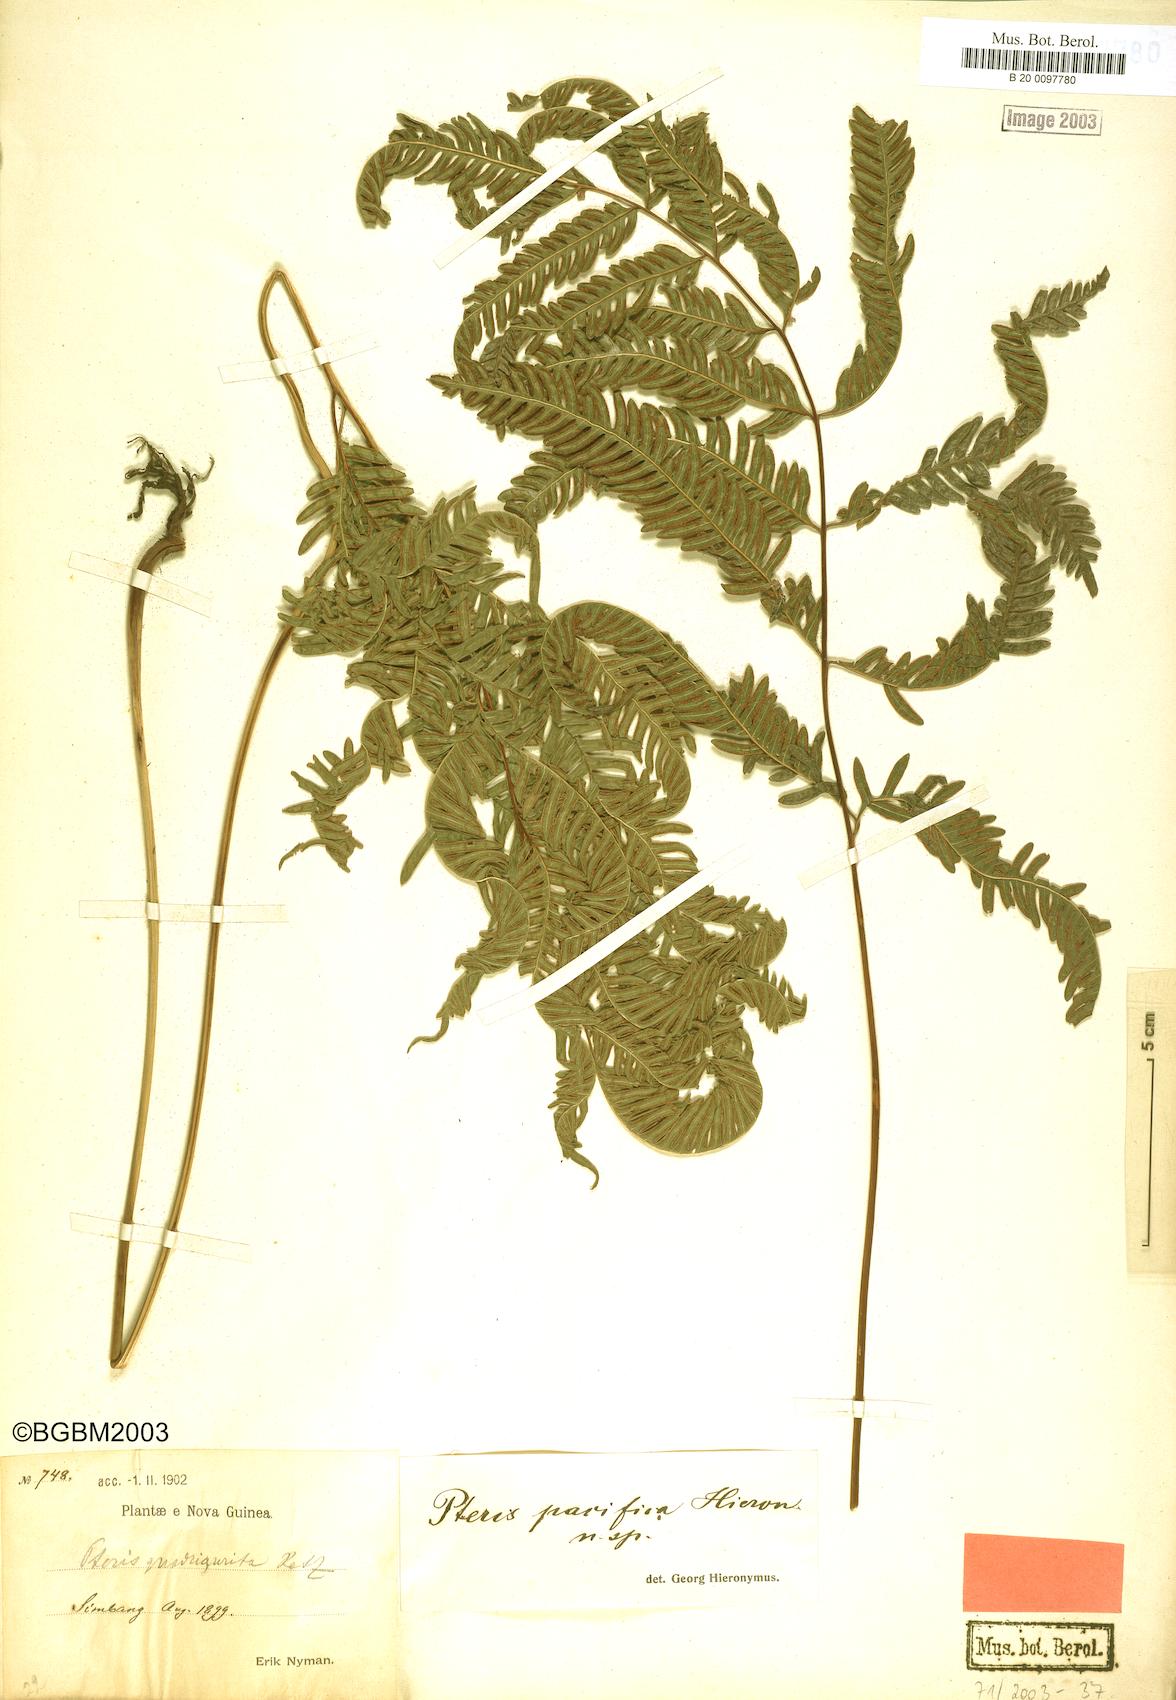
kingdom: Plantae
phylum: Tracheophyta
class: Polypodiopsida
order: Polypodiales
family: Pteridaceae
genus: Pteris
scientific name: Pteris biaurita
